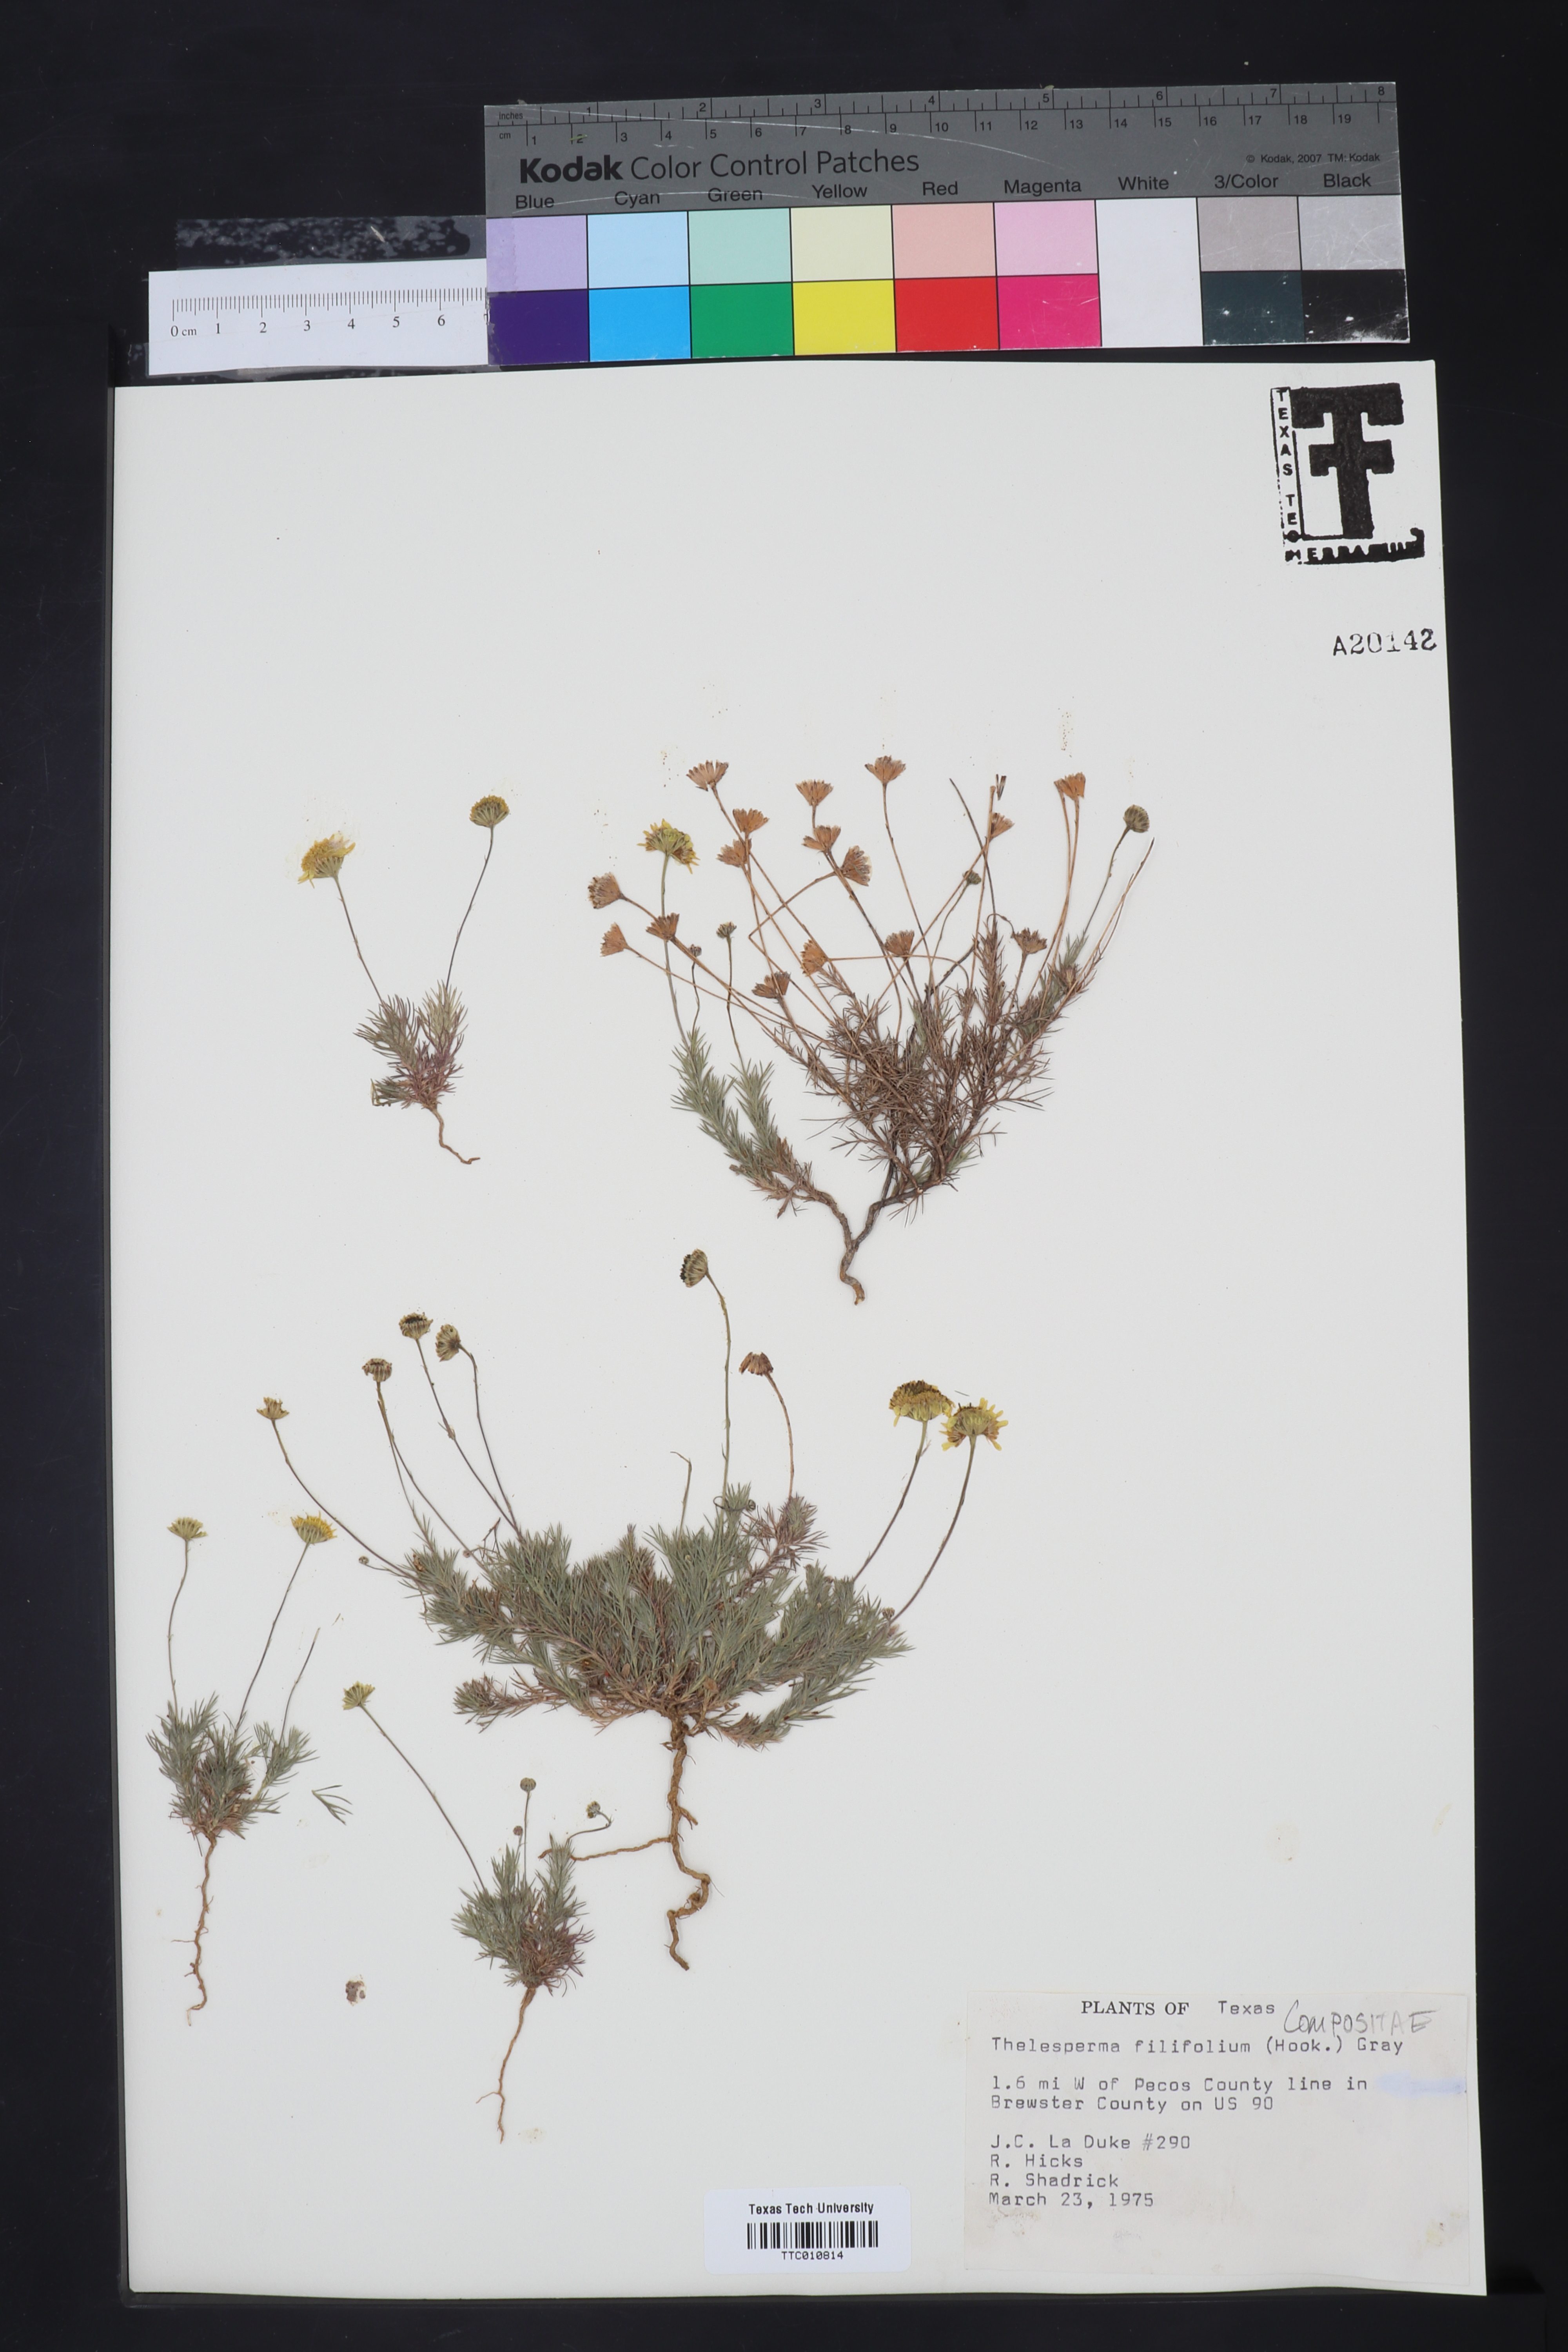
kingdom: Plantae
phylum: Tracheophyta
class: Magnoliopsida
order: Asterales
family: Asteraceae
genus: Thelesperma
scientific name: Thelesperma filifolium
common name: Stiff greenthread
